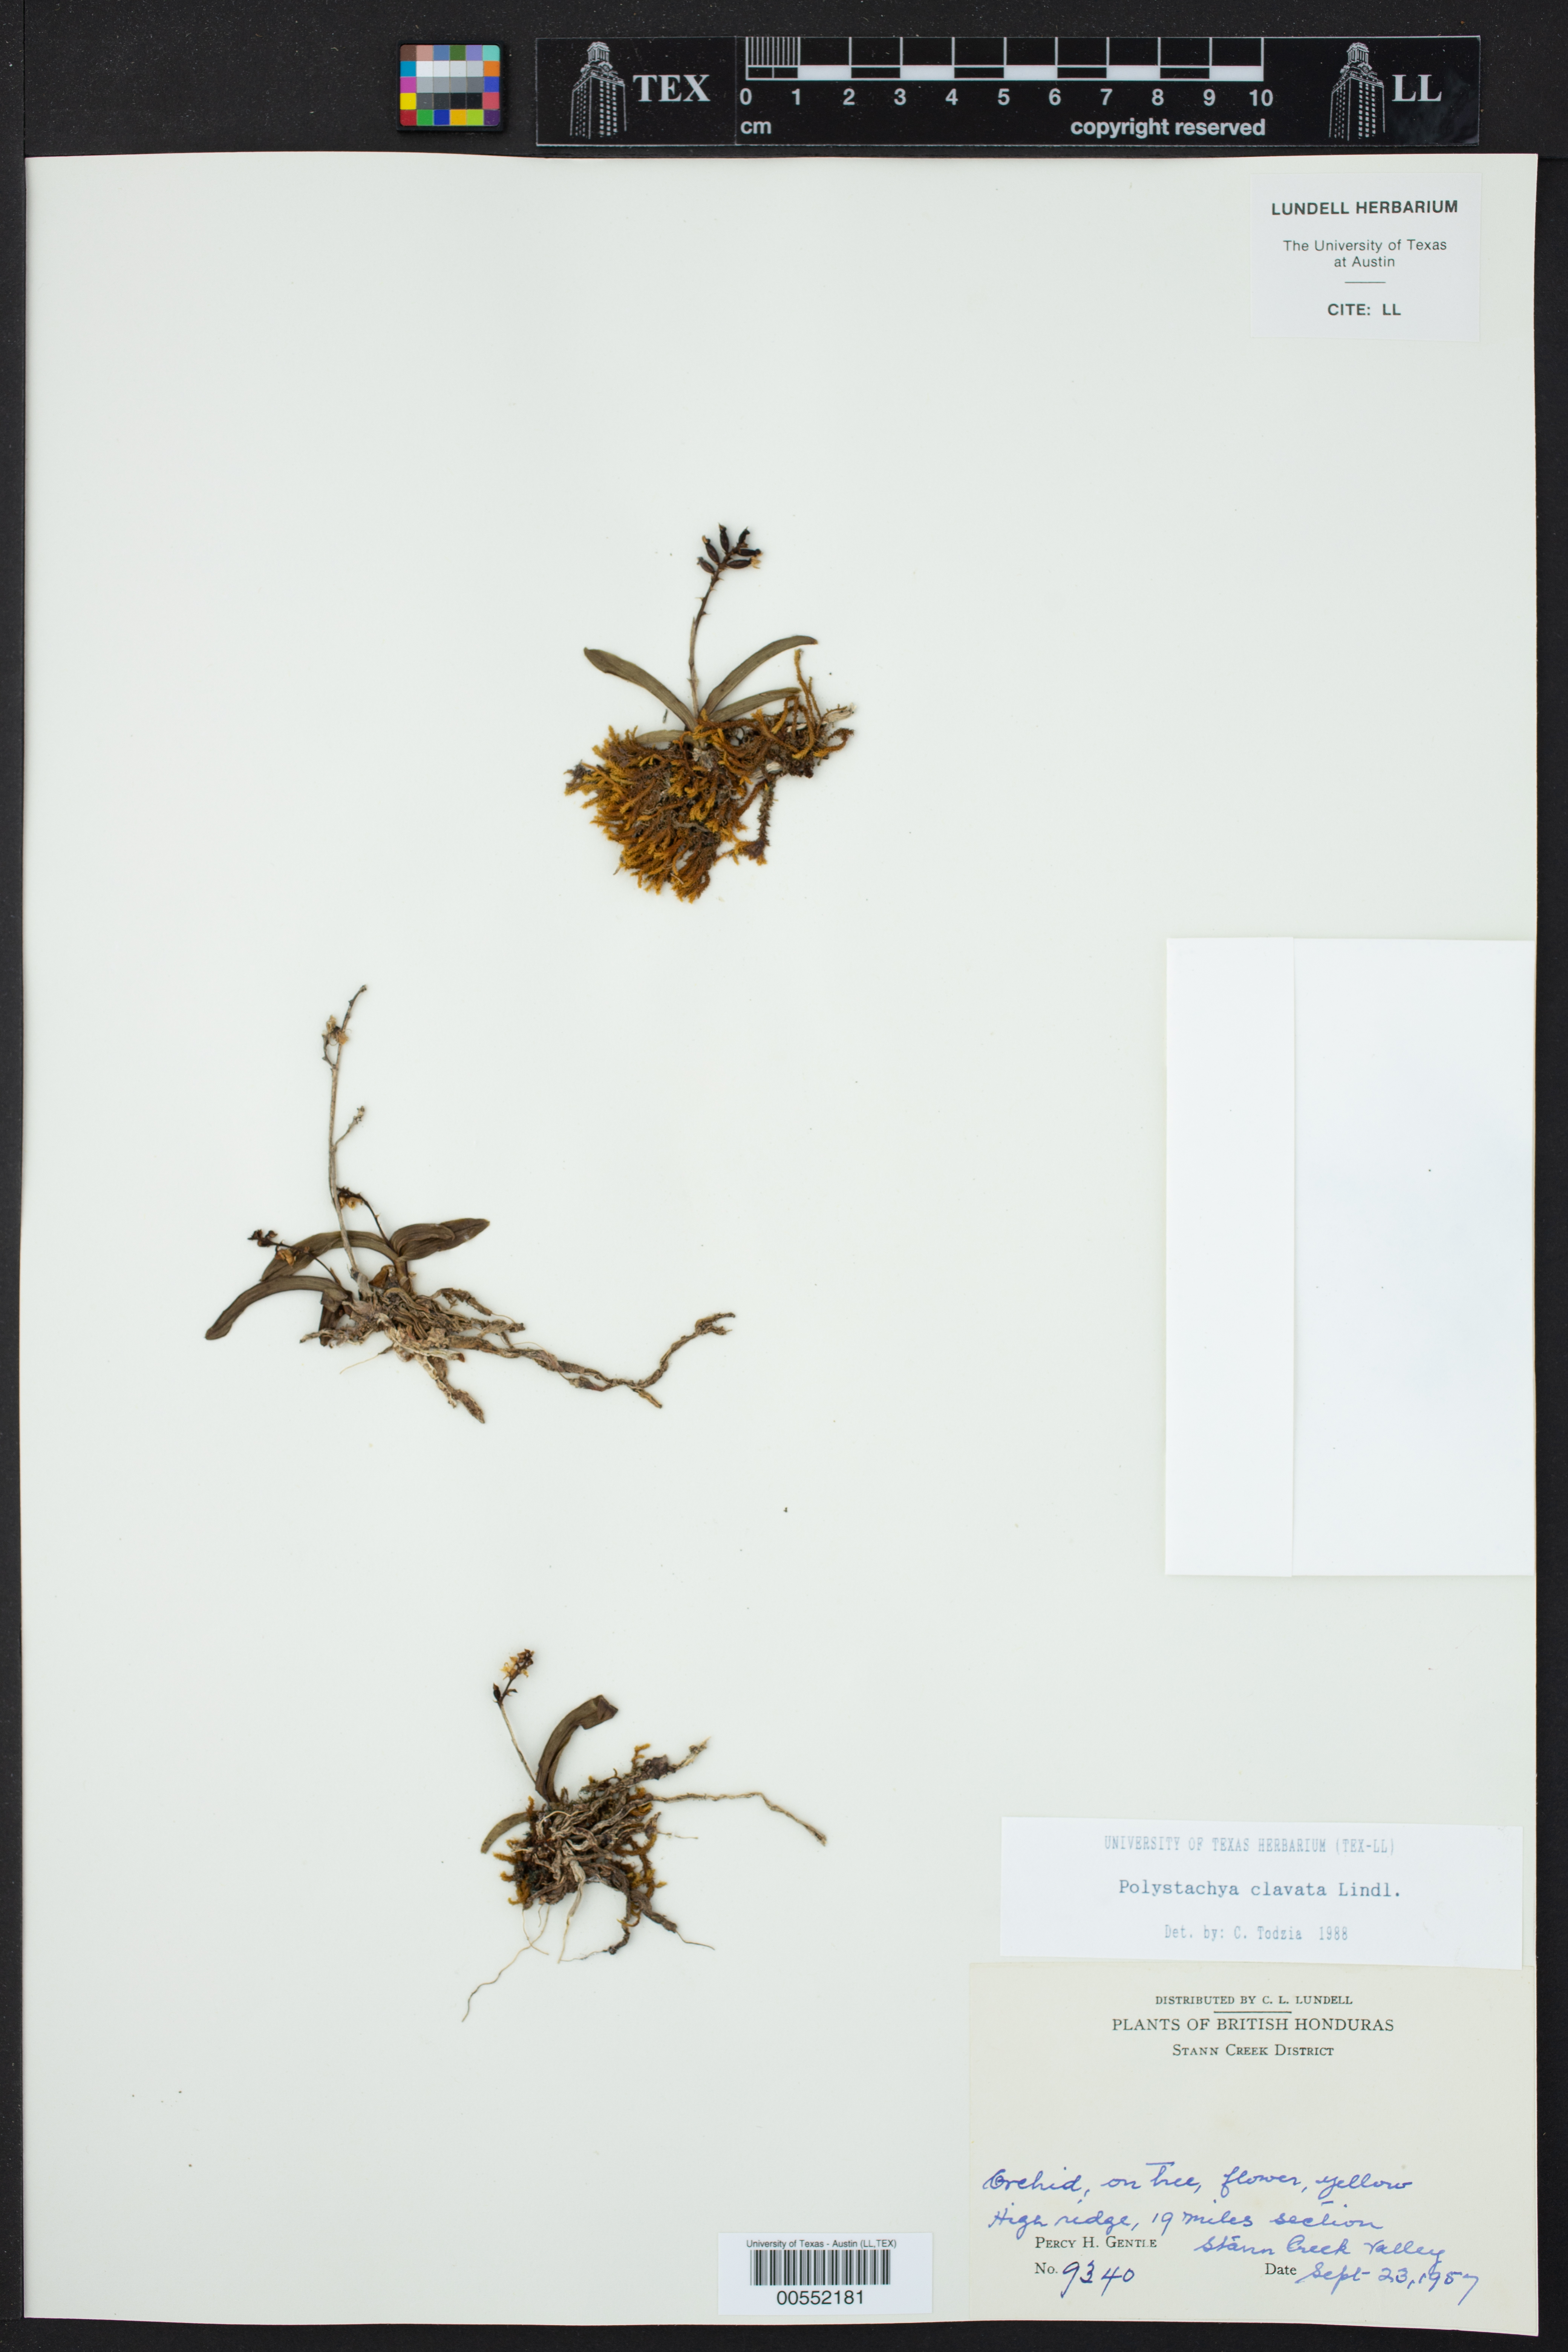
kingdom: Plantae
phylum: Tracheophyta
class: Liliopsida
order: Asparagales
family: Orchidaceae
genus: Polystachya
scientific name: Polystachya clavata
